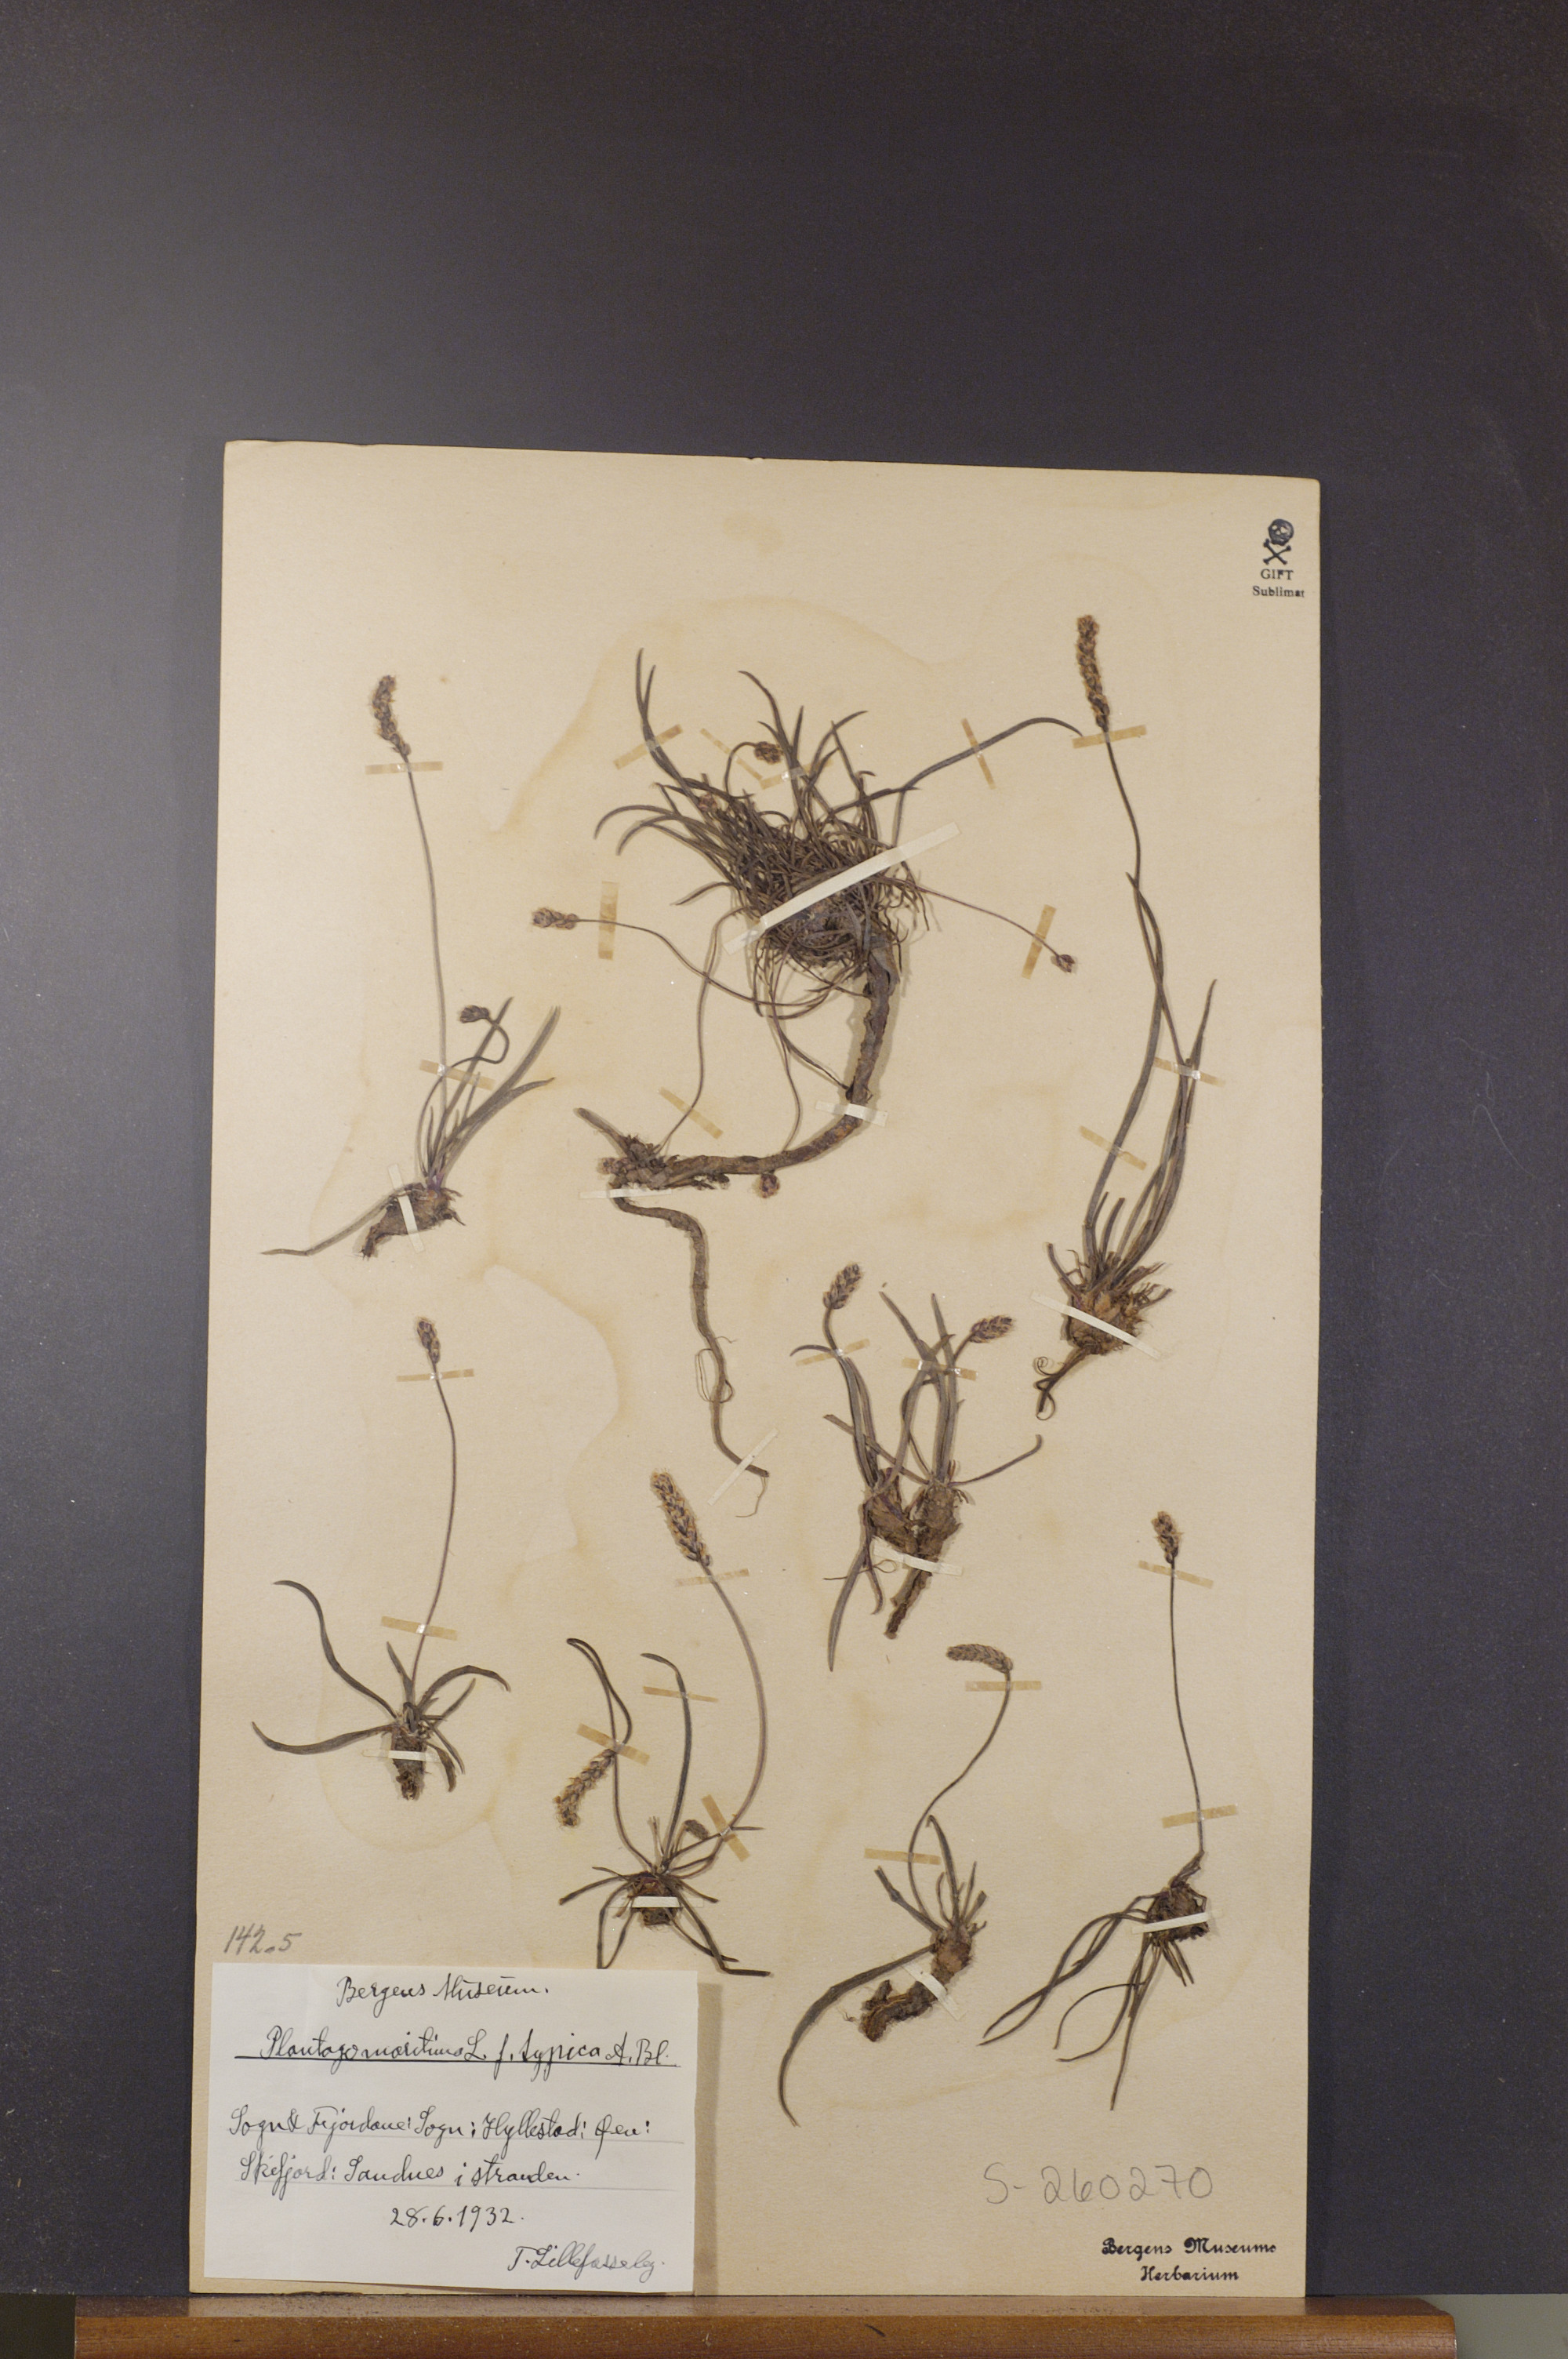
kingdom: Plantae
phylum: Tracheophyta
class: Magnoliopsida
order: Lamiales
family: Plantaginaceae
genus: Plantago
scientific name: Plantago maritima
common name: Sea plantain
